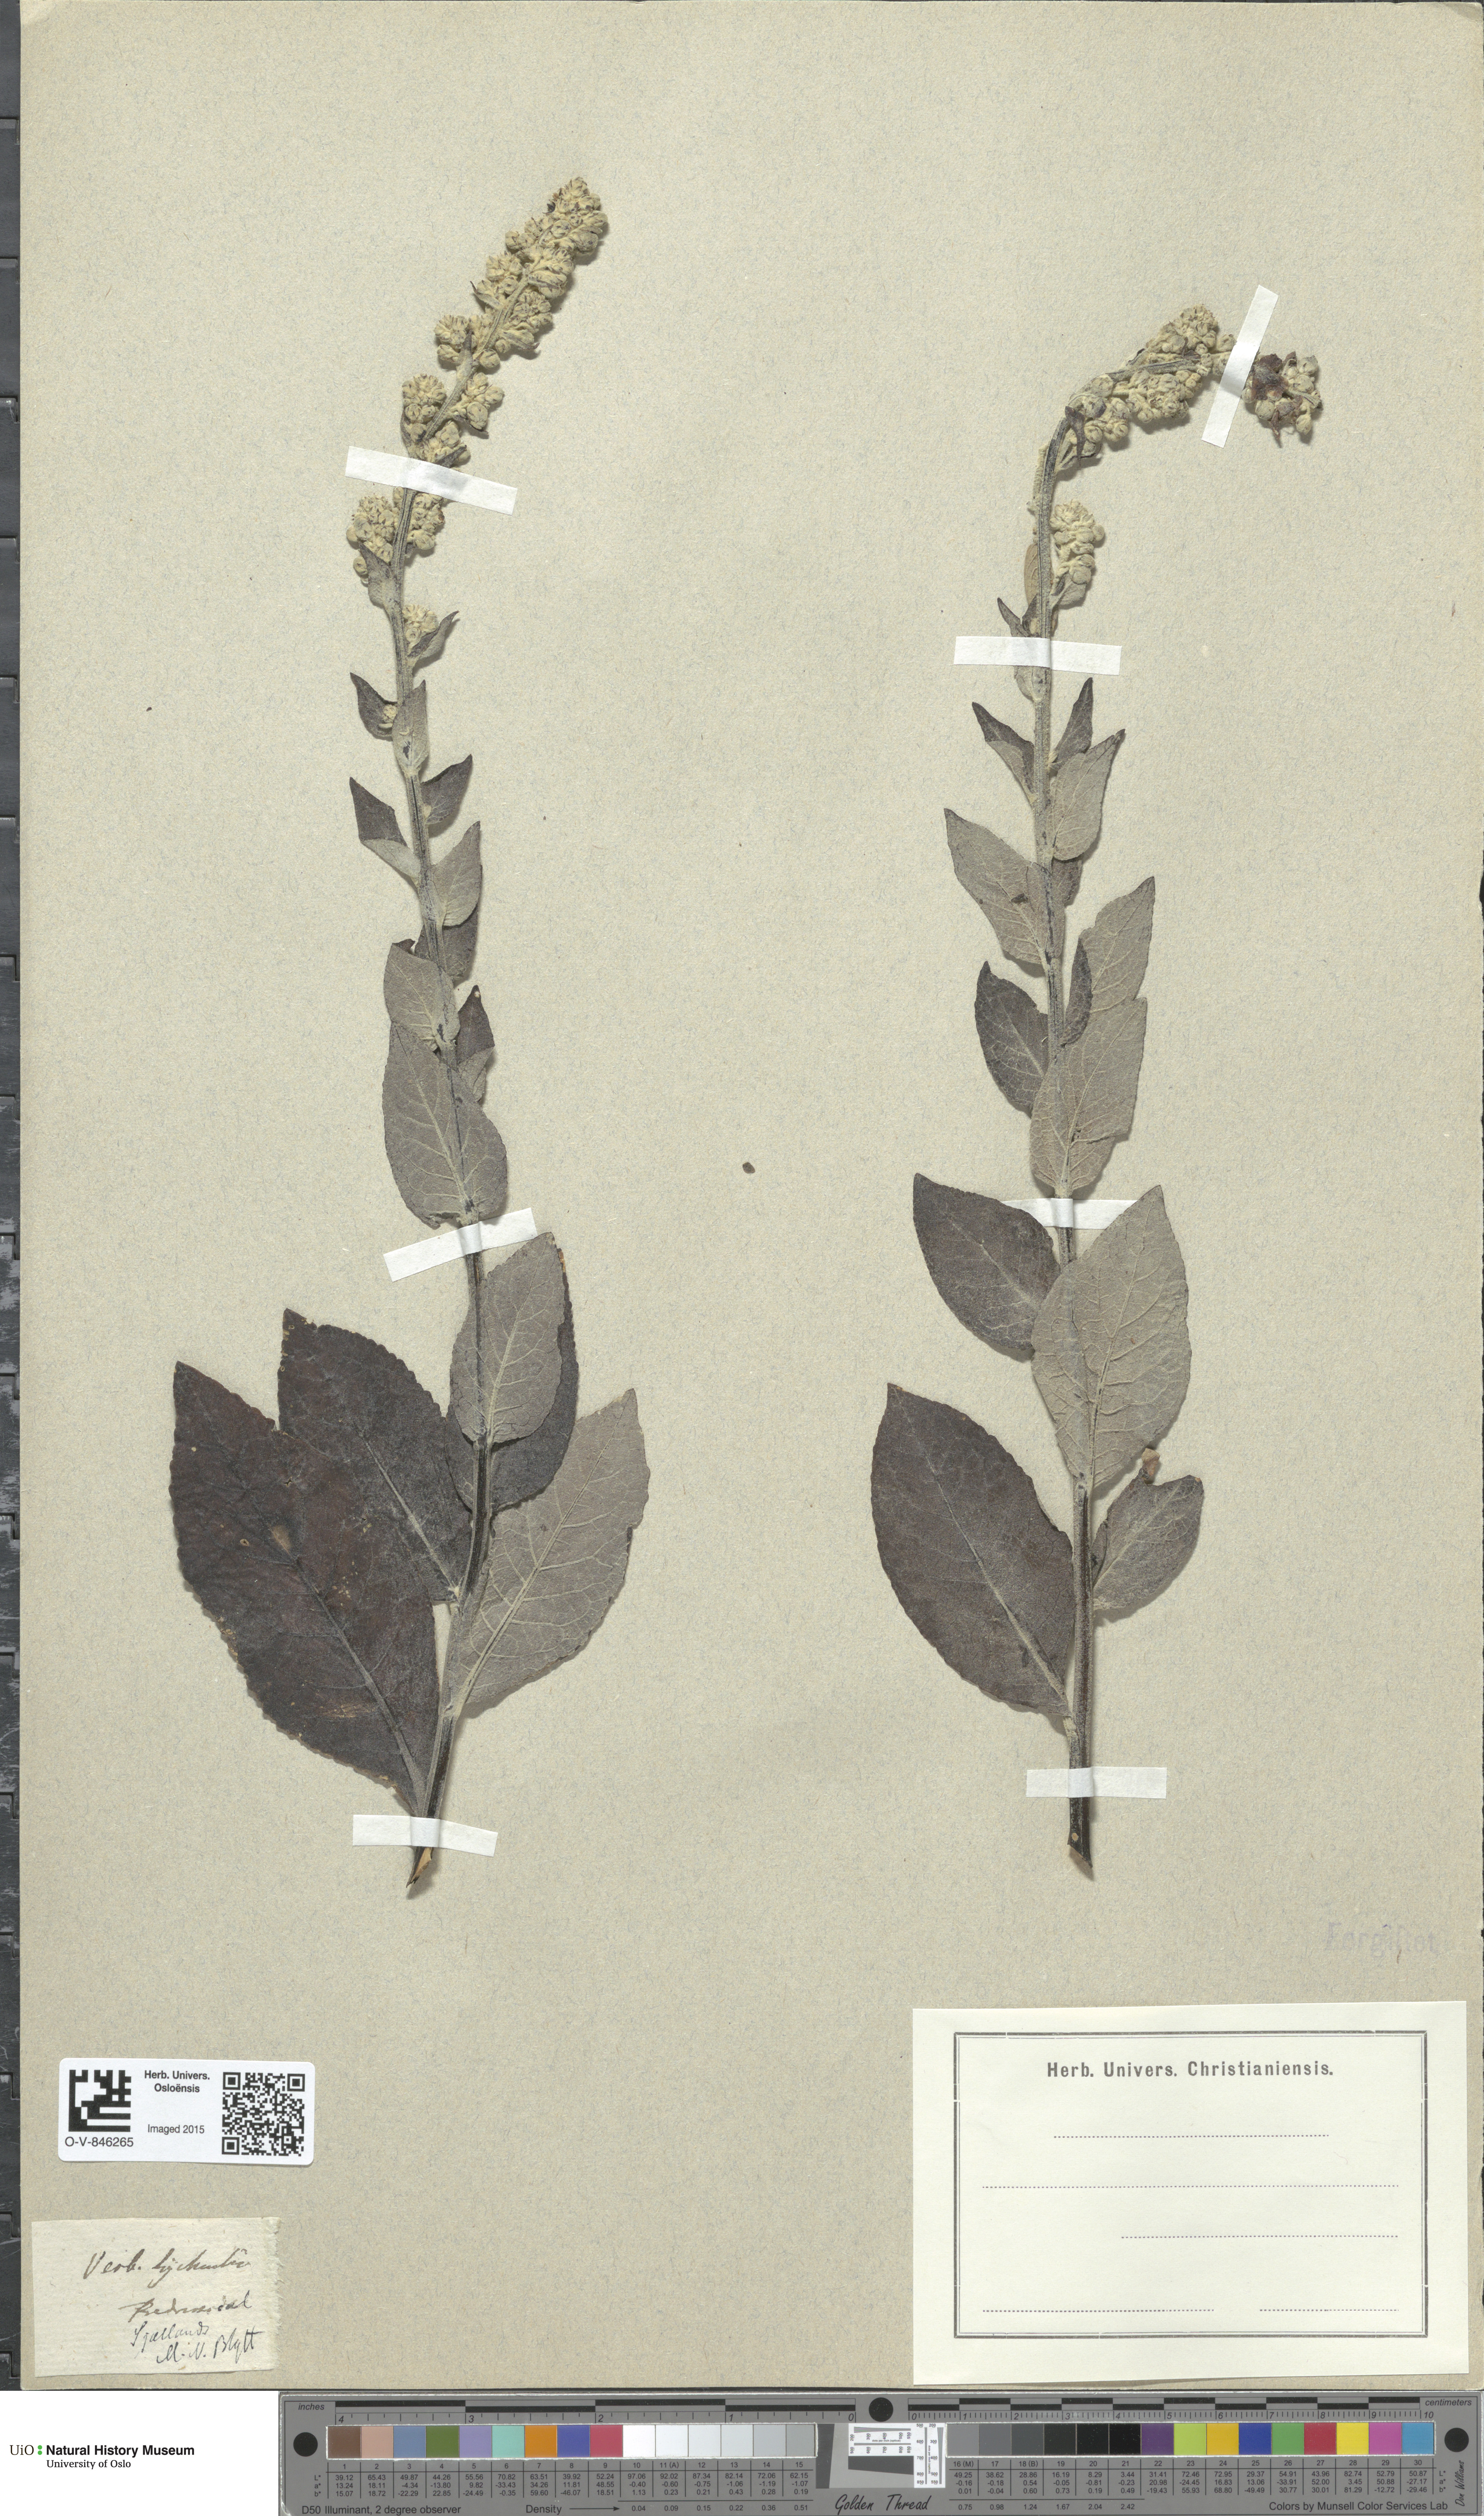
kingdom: Plantae
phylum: Tracheophyta
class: Magnoliopsida
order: Lamiales
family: Scrophulariaceae
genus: Verbascum
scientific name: Verbascum lychnitis
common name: White mullein
